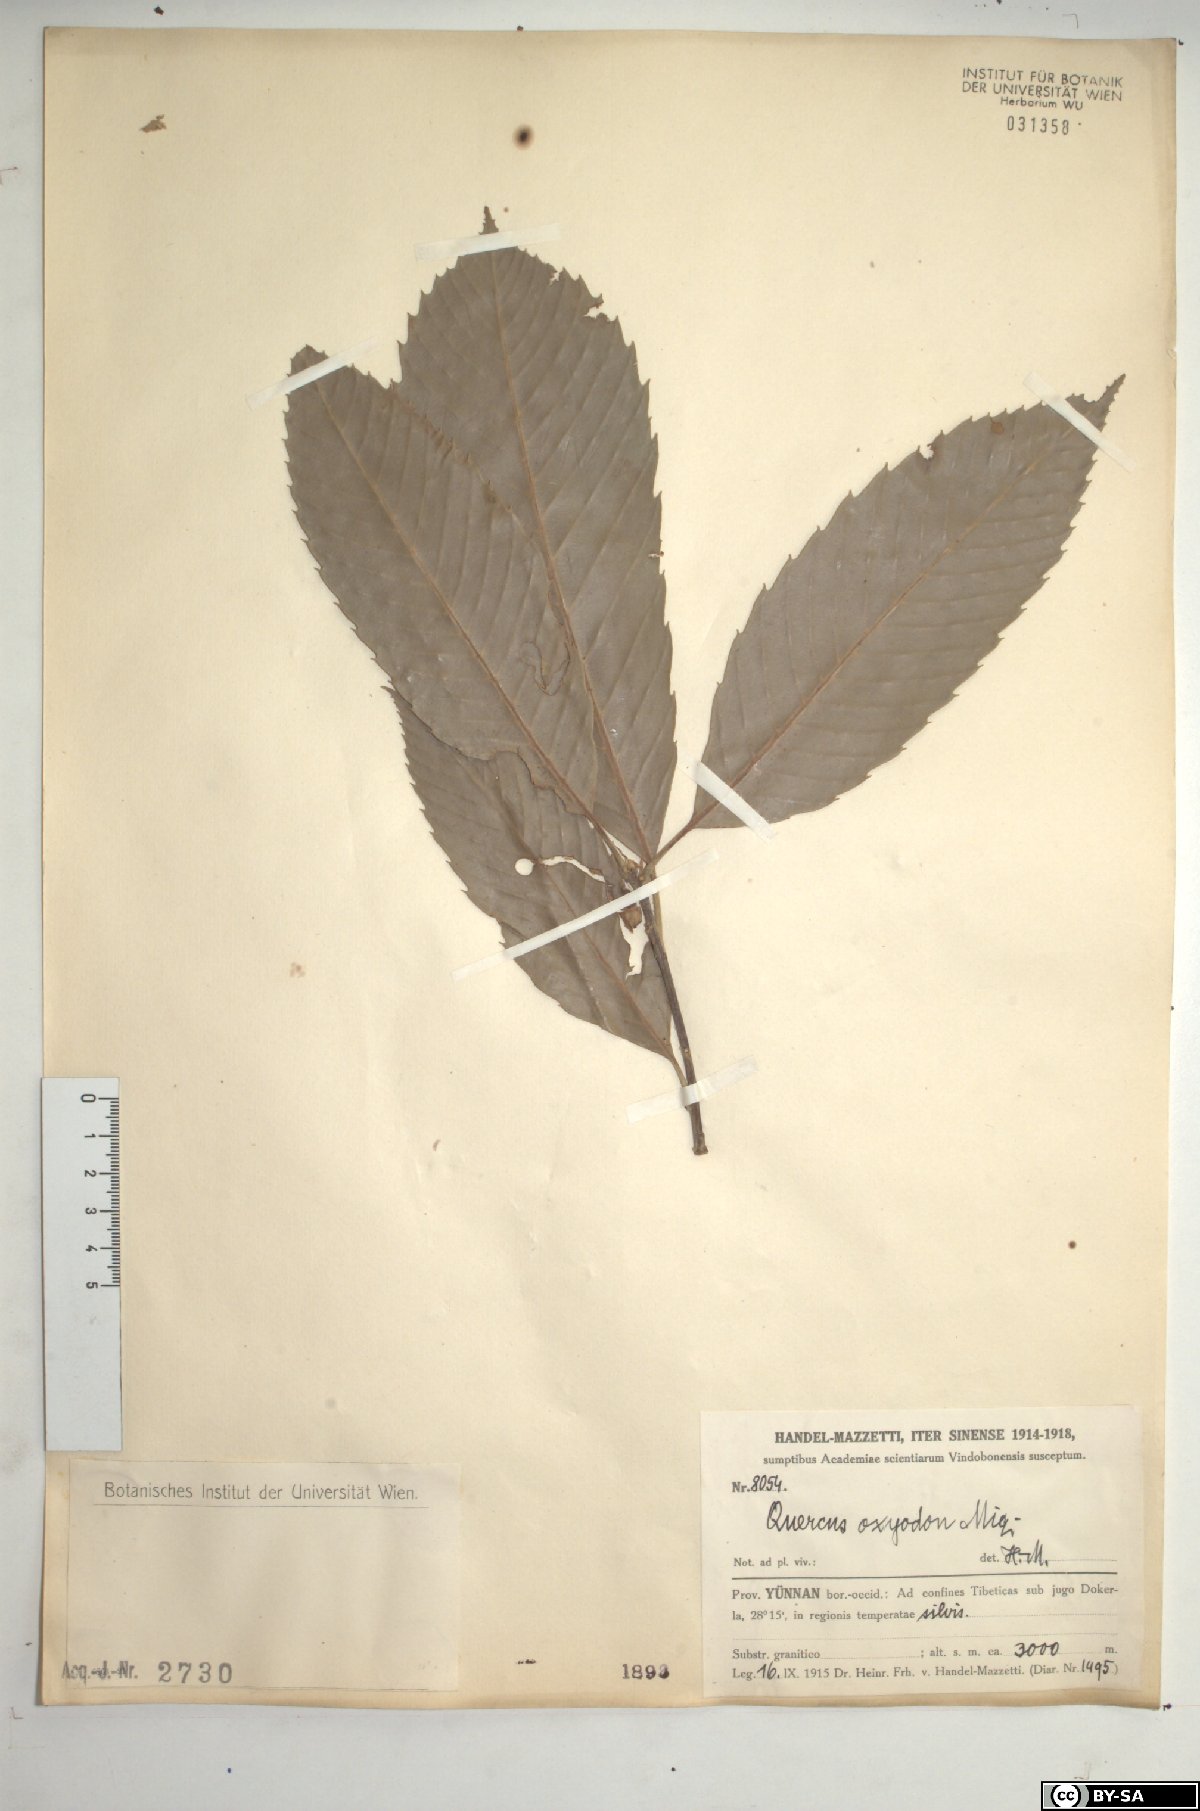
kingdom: Plantae
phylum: Tracheophyta
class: Magnoliopsida
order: Fagales
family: Fagaceae
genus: Quercus
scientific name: Quercus oxyodon
